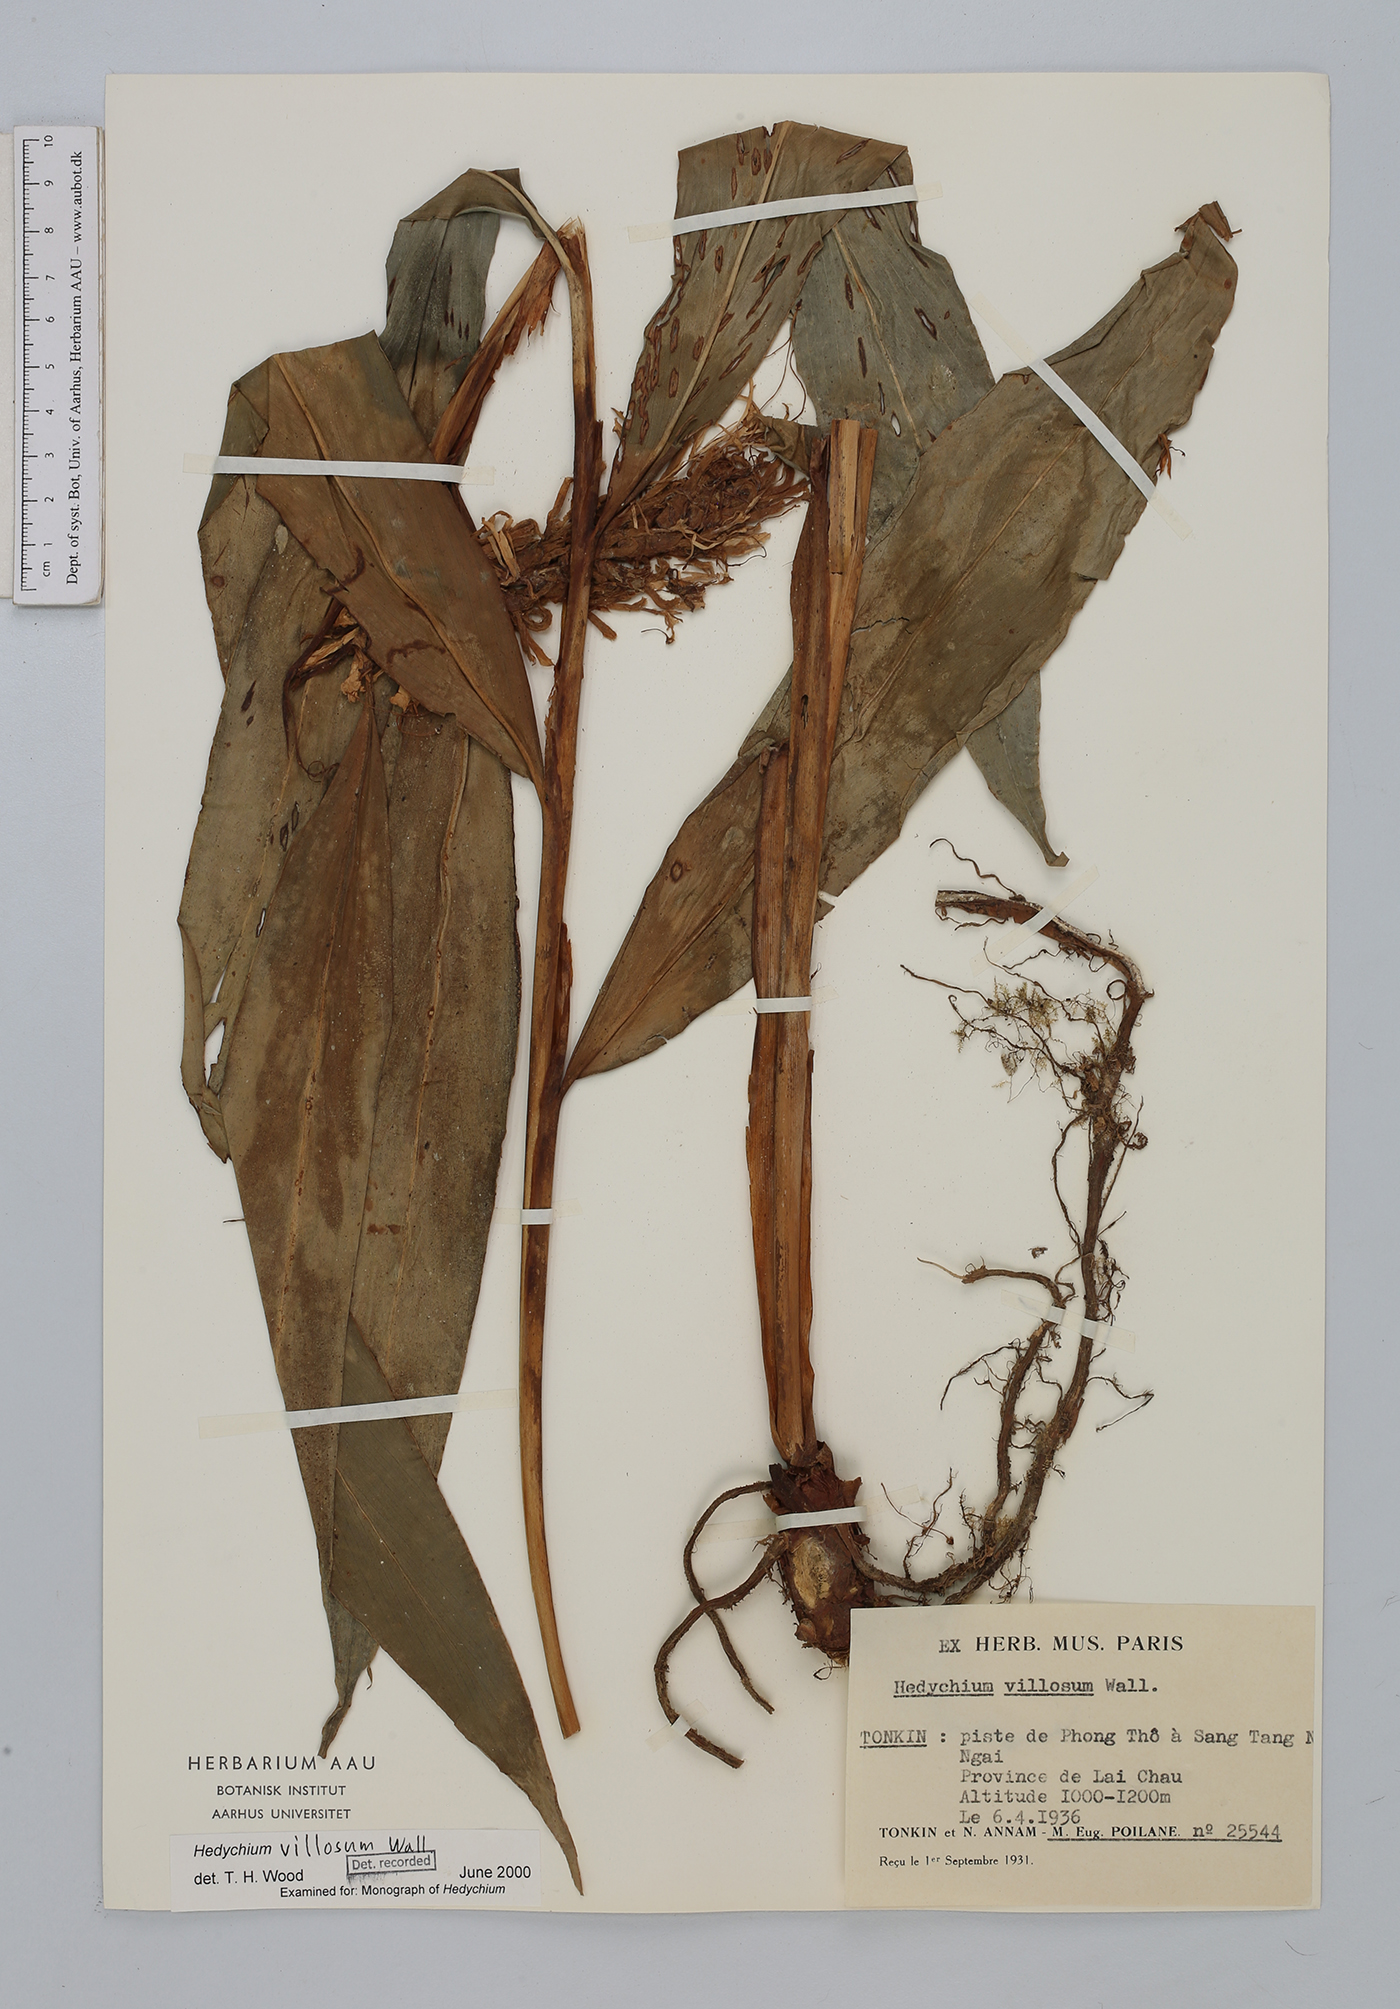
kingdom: Plantae
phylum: Tracheophyta
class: Liliopsida
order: Zingiberales
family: Zingiberaceae
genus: Hedychium
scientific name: Hedychium villosum
